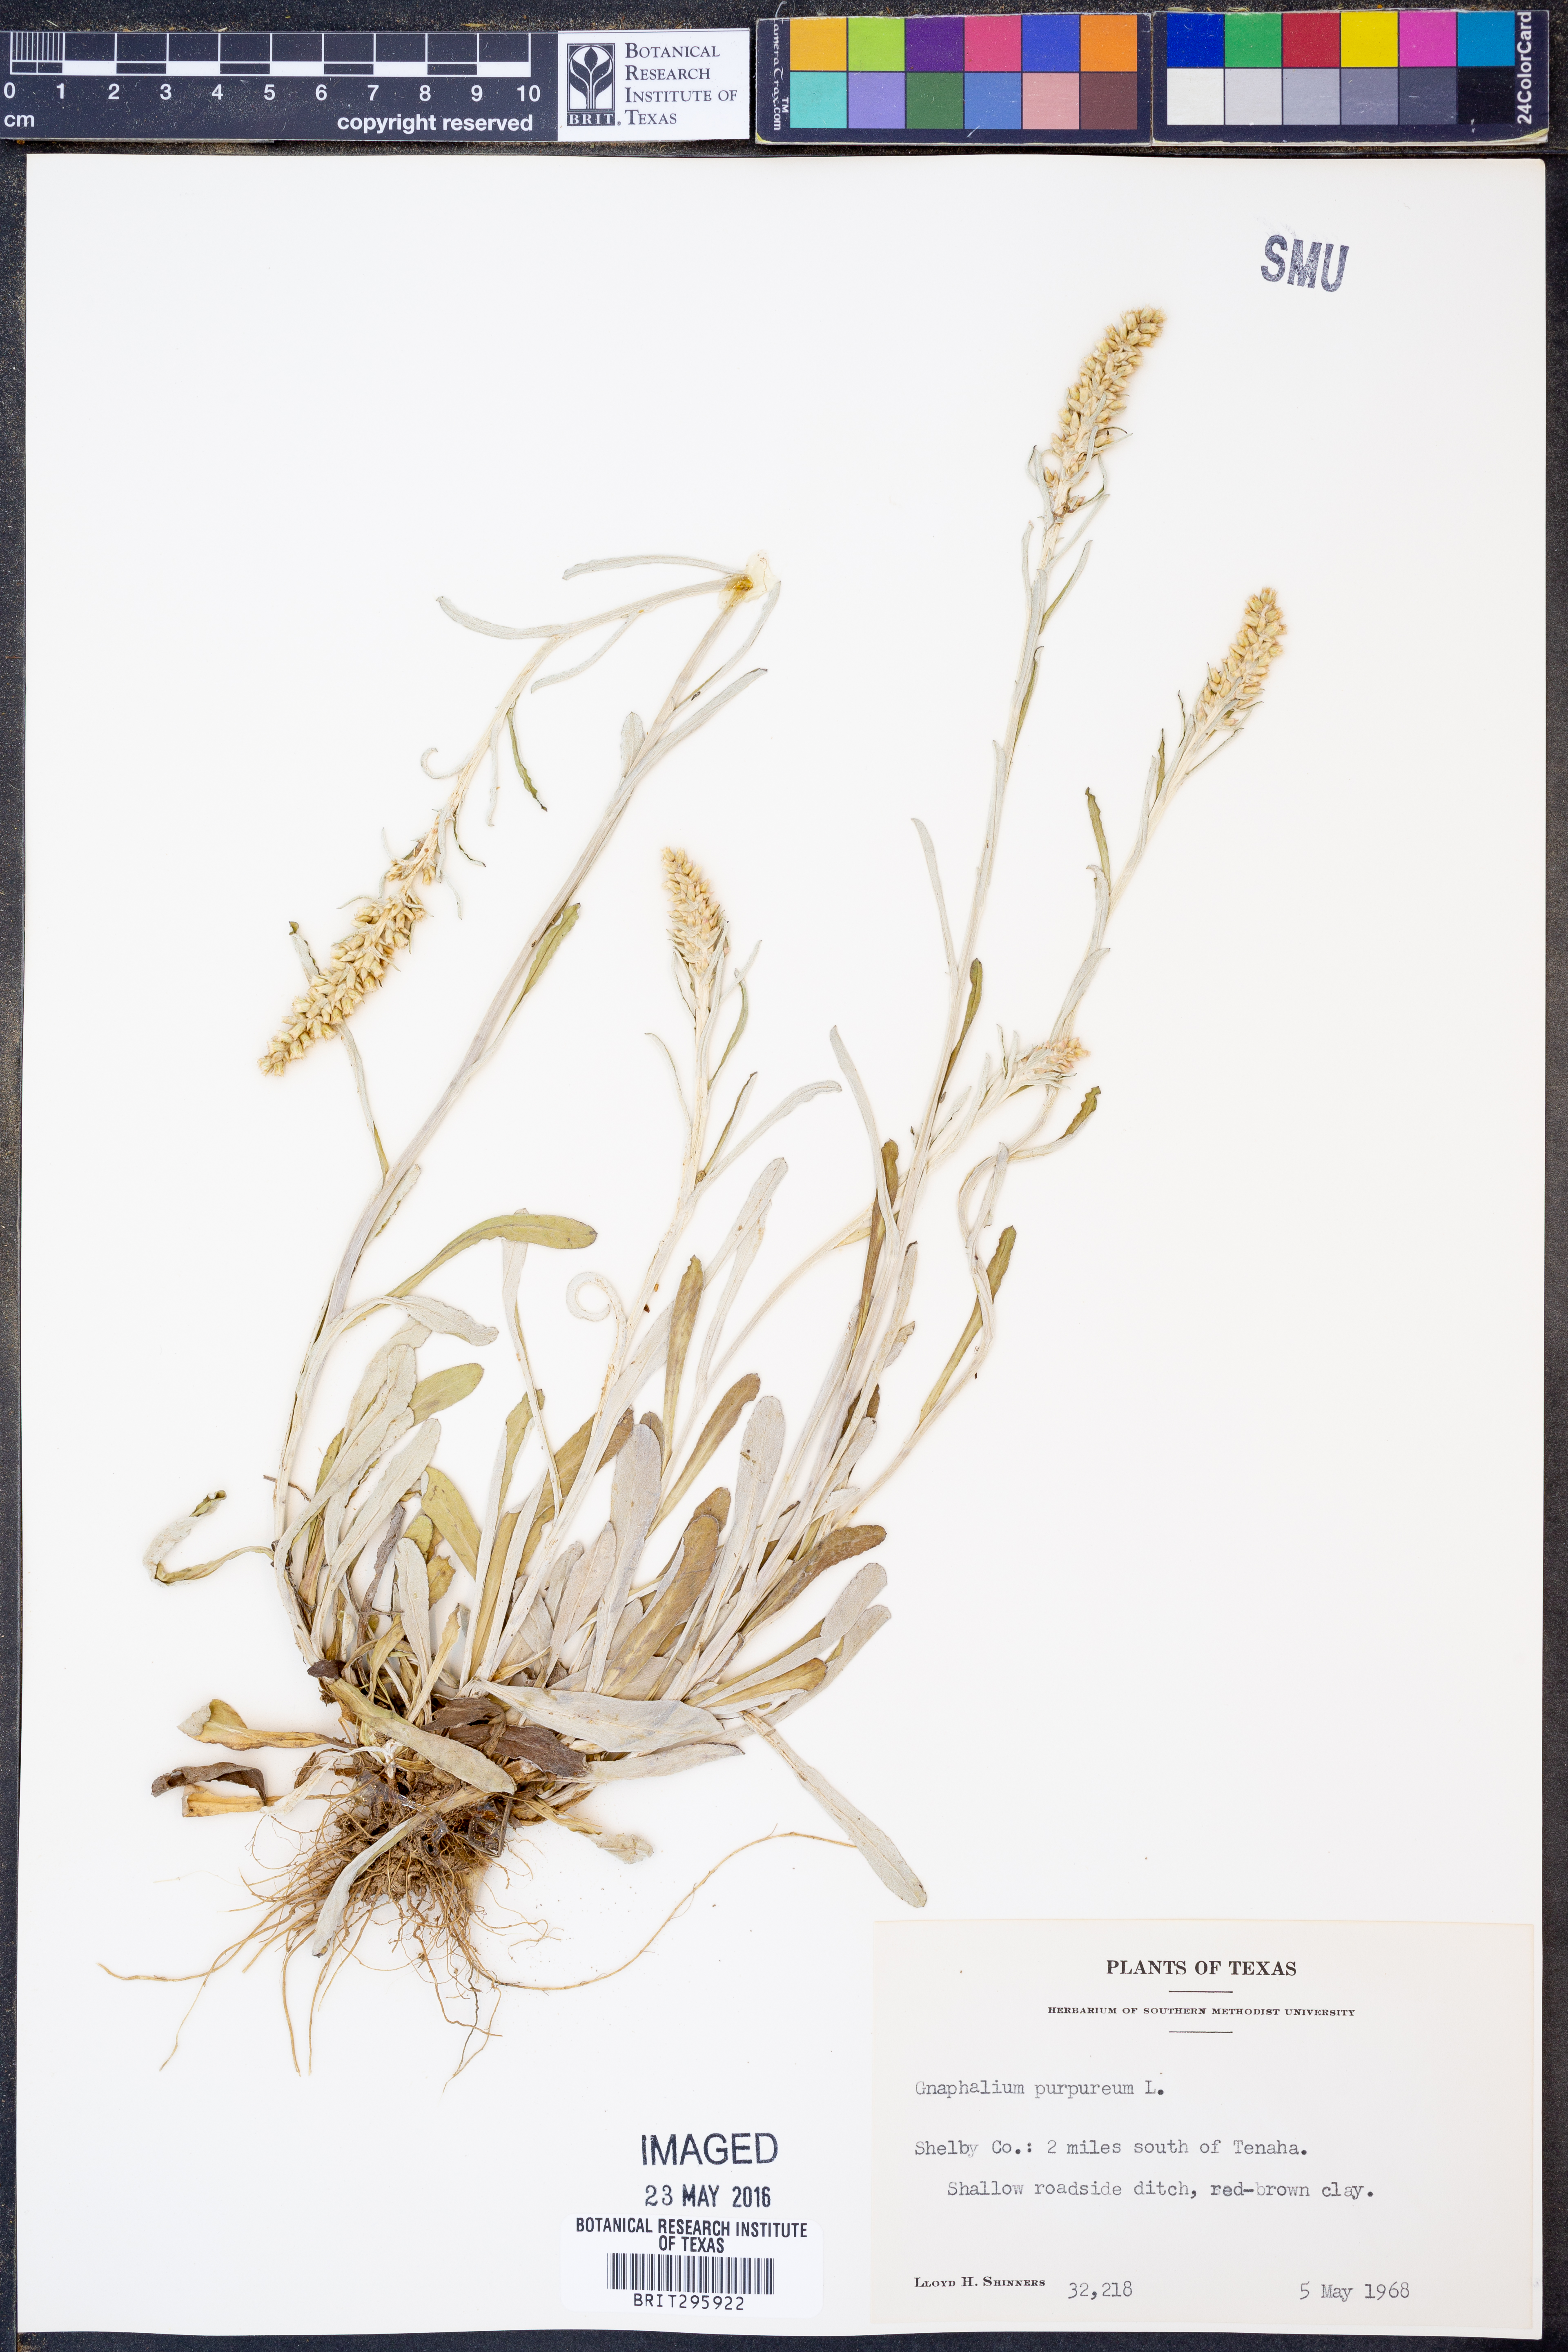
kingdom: Plantae
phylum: Tracheophyta
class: Magnoliopsida
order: Asterales
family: Asteraceae
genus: Gamochaeta
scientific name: Gamochaeta purpurea
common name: Purple cudweed
